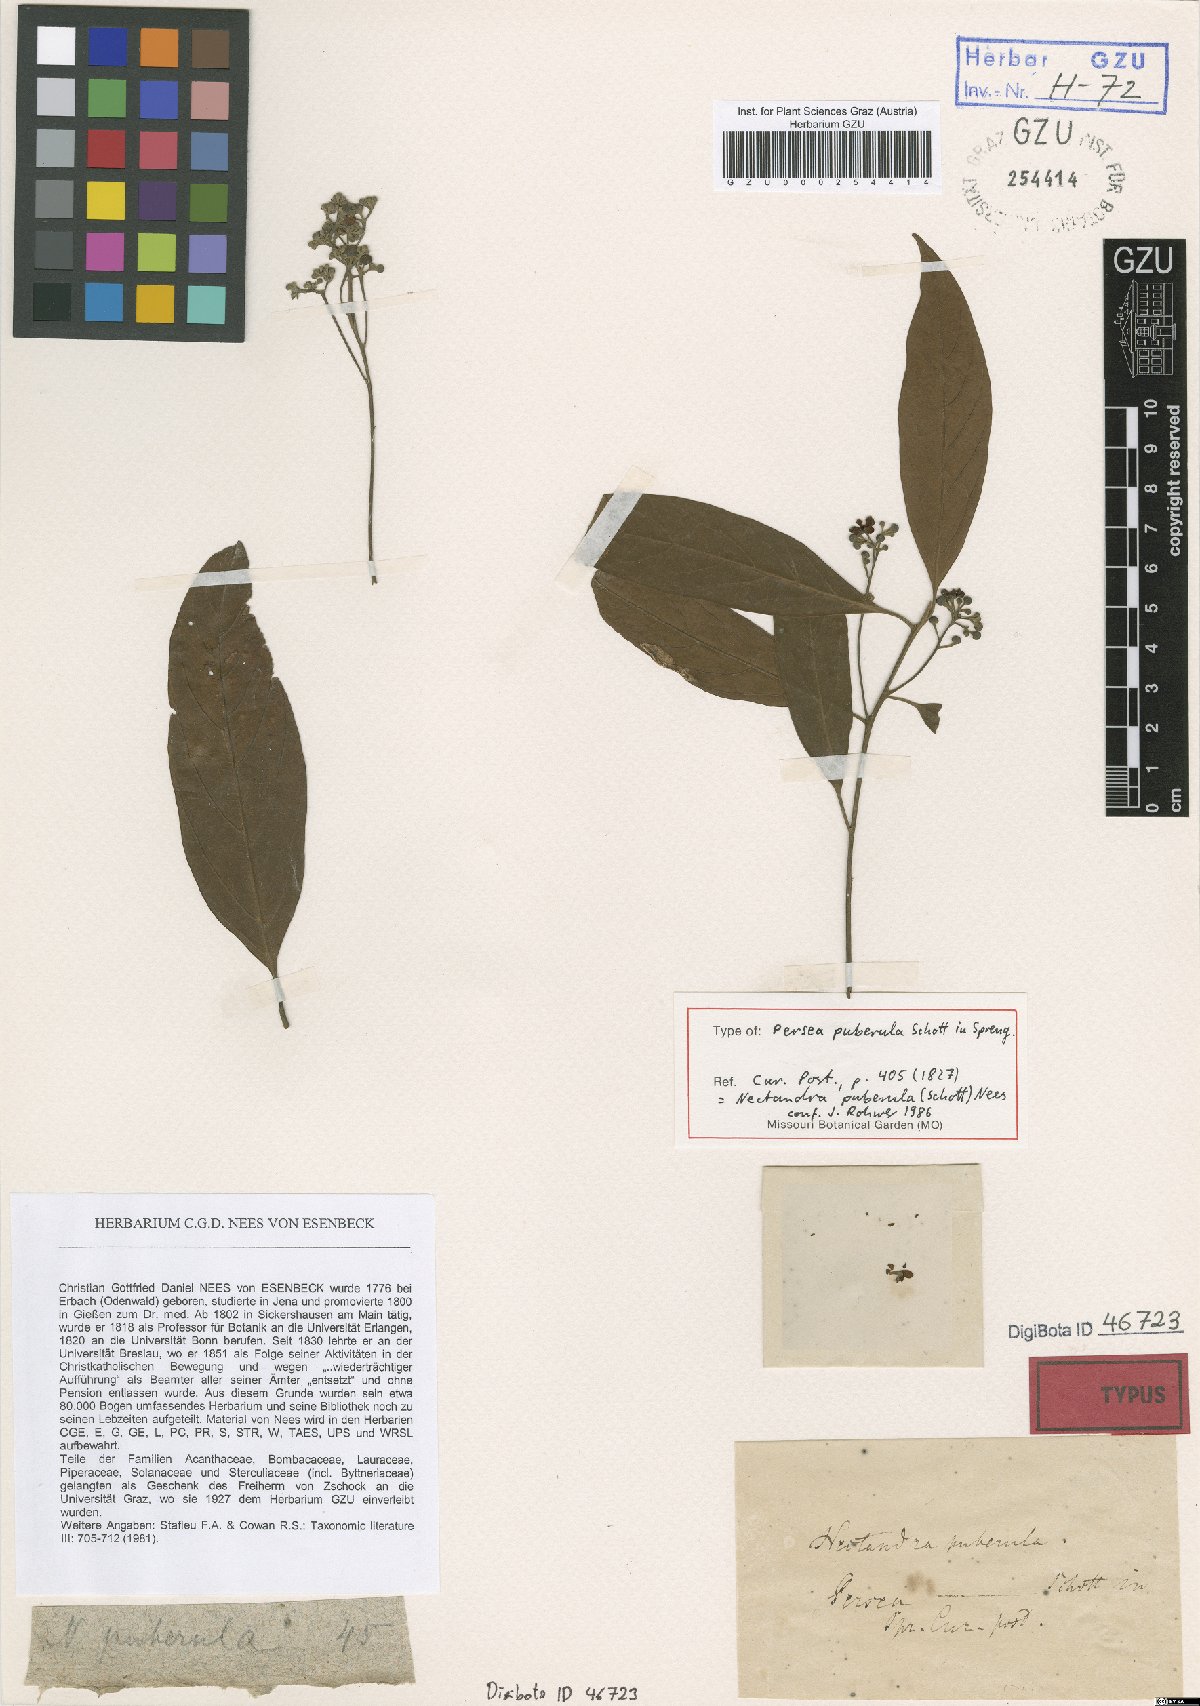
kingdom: Plantae
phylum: Tracheophyta
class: Magnoliopsida
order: Laurales
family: Lauraceae
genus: Nectandra
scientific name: Nectandra puberula
